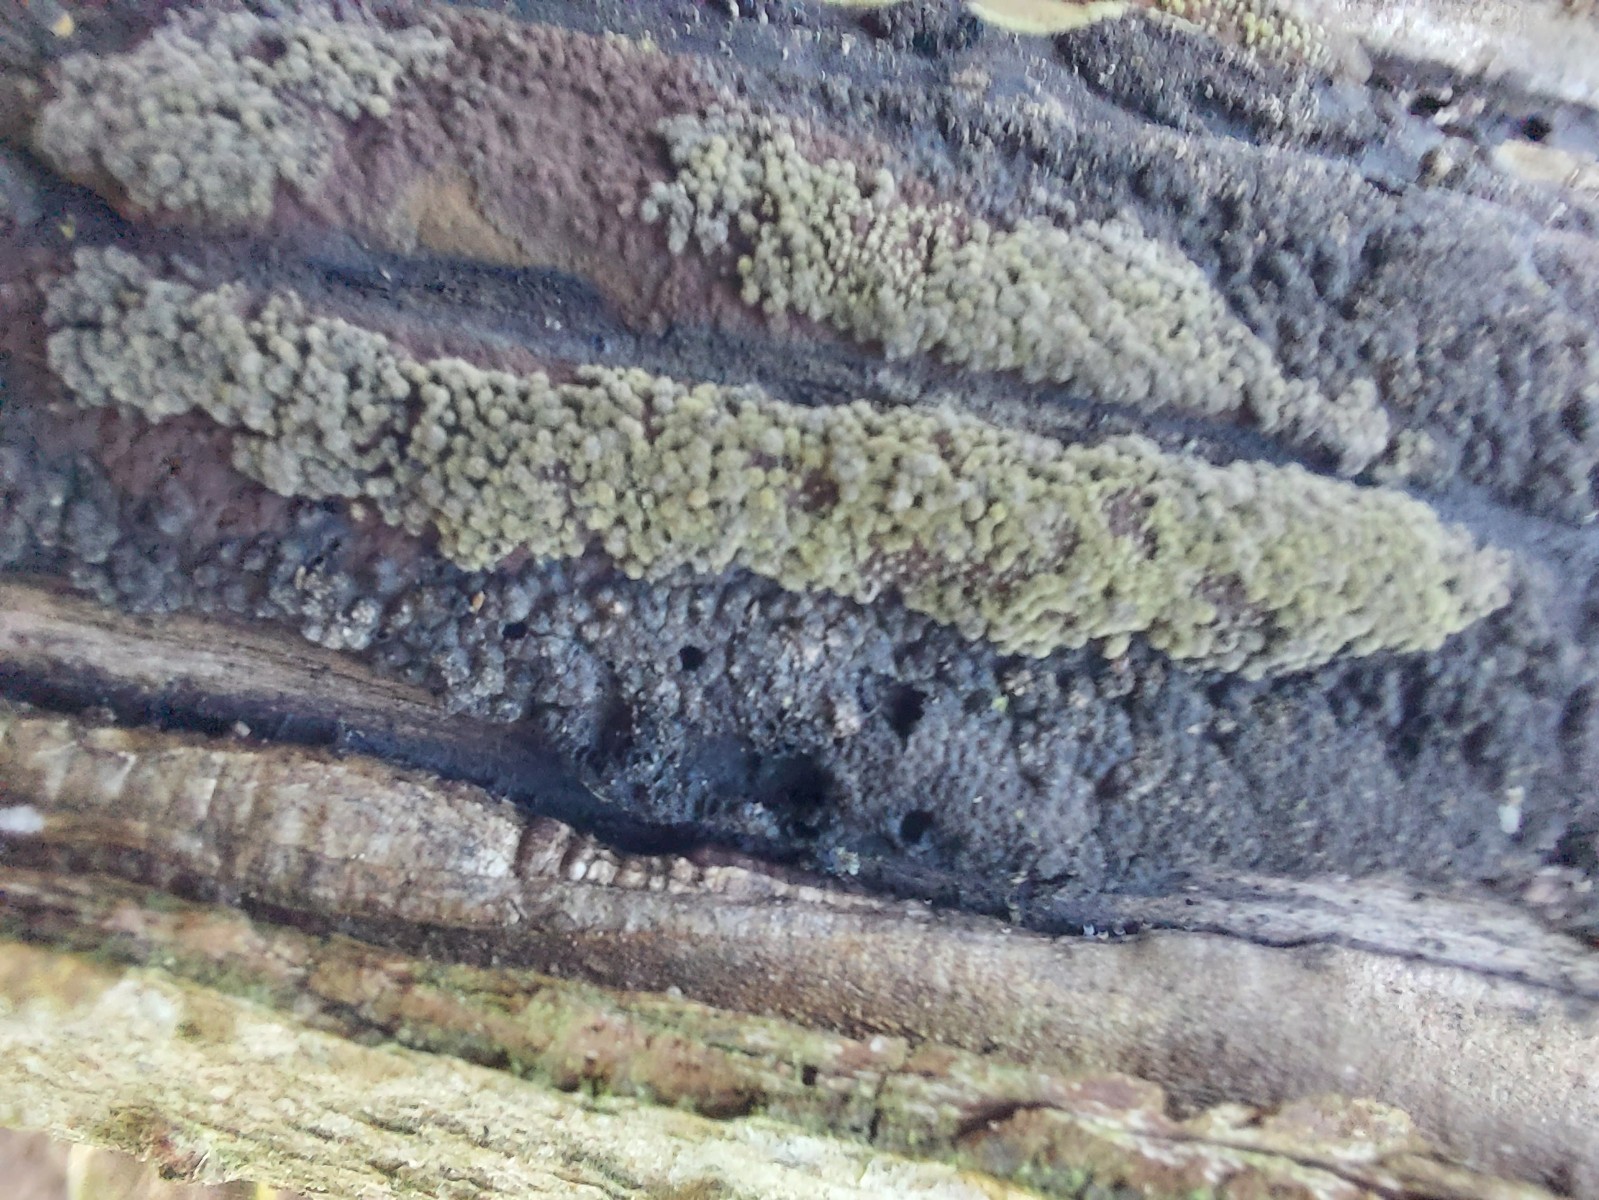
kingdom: Fungi
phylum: Ascomycota
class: Sordariomycetes
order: Xylariales
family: Hypoxylaceae
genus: Hypoxylon
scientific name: Hypoxylon rubiginosum
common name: rustfarvet kulbær
